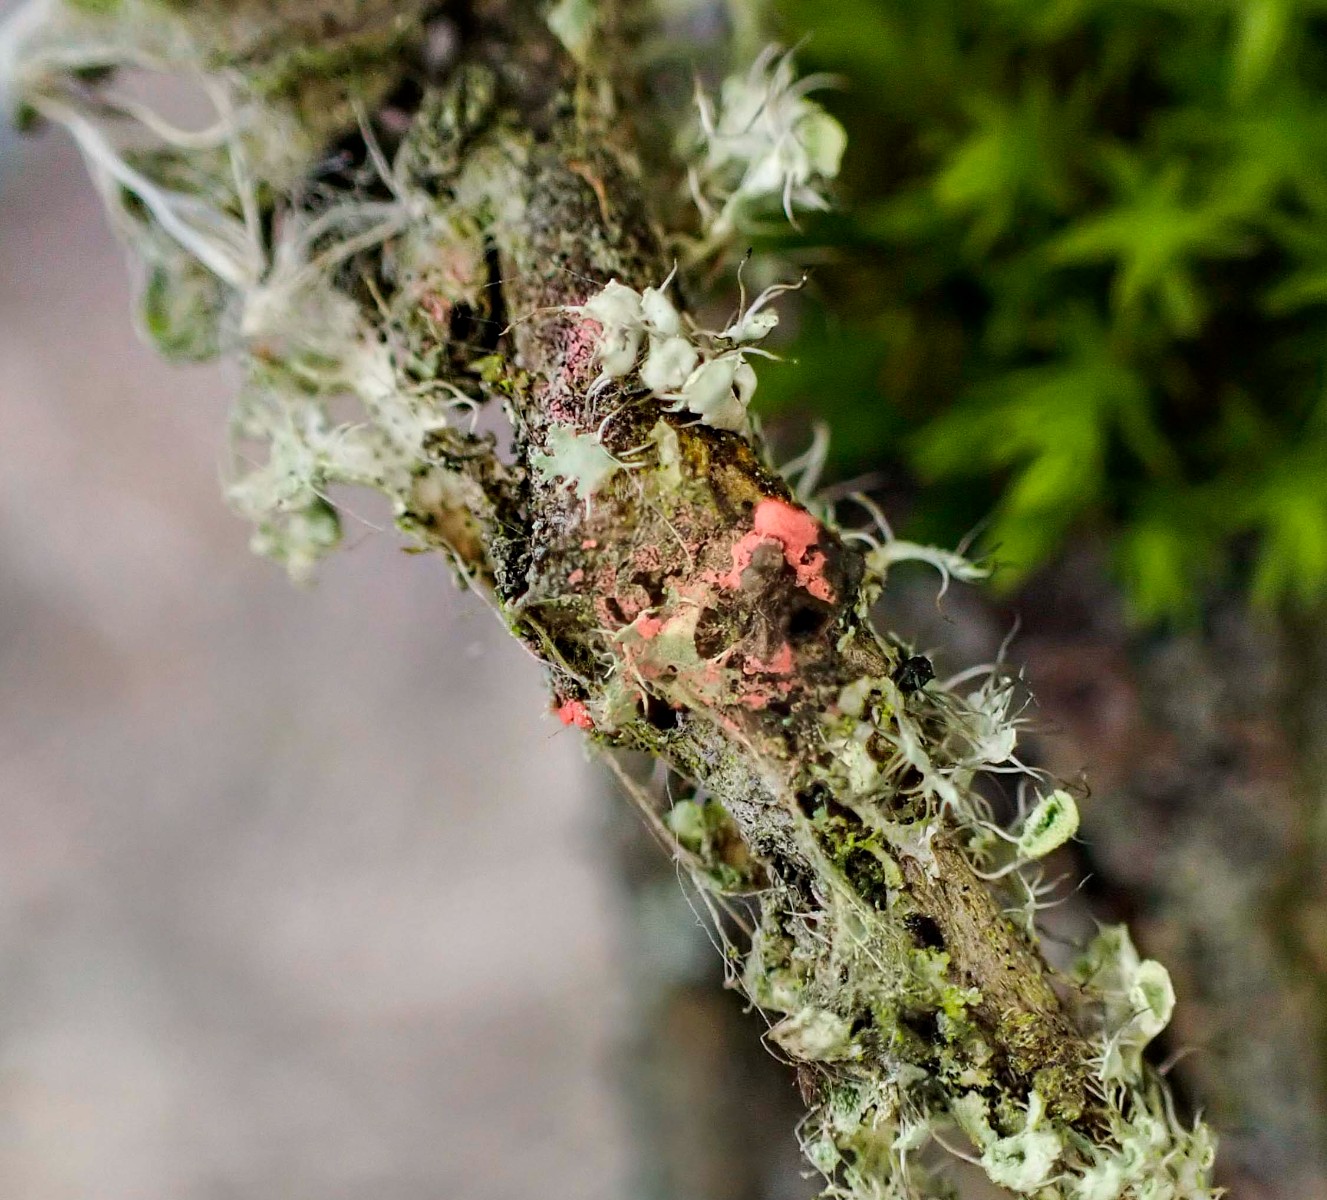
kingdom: Fungi
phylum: Ascomycota
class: Sordariomycetes
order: Hypocreales
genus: Illosporiopsis
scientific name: Illosporiopsis christiansenii
